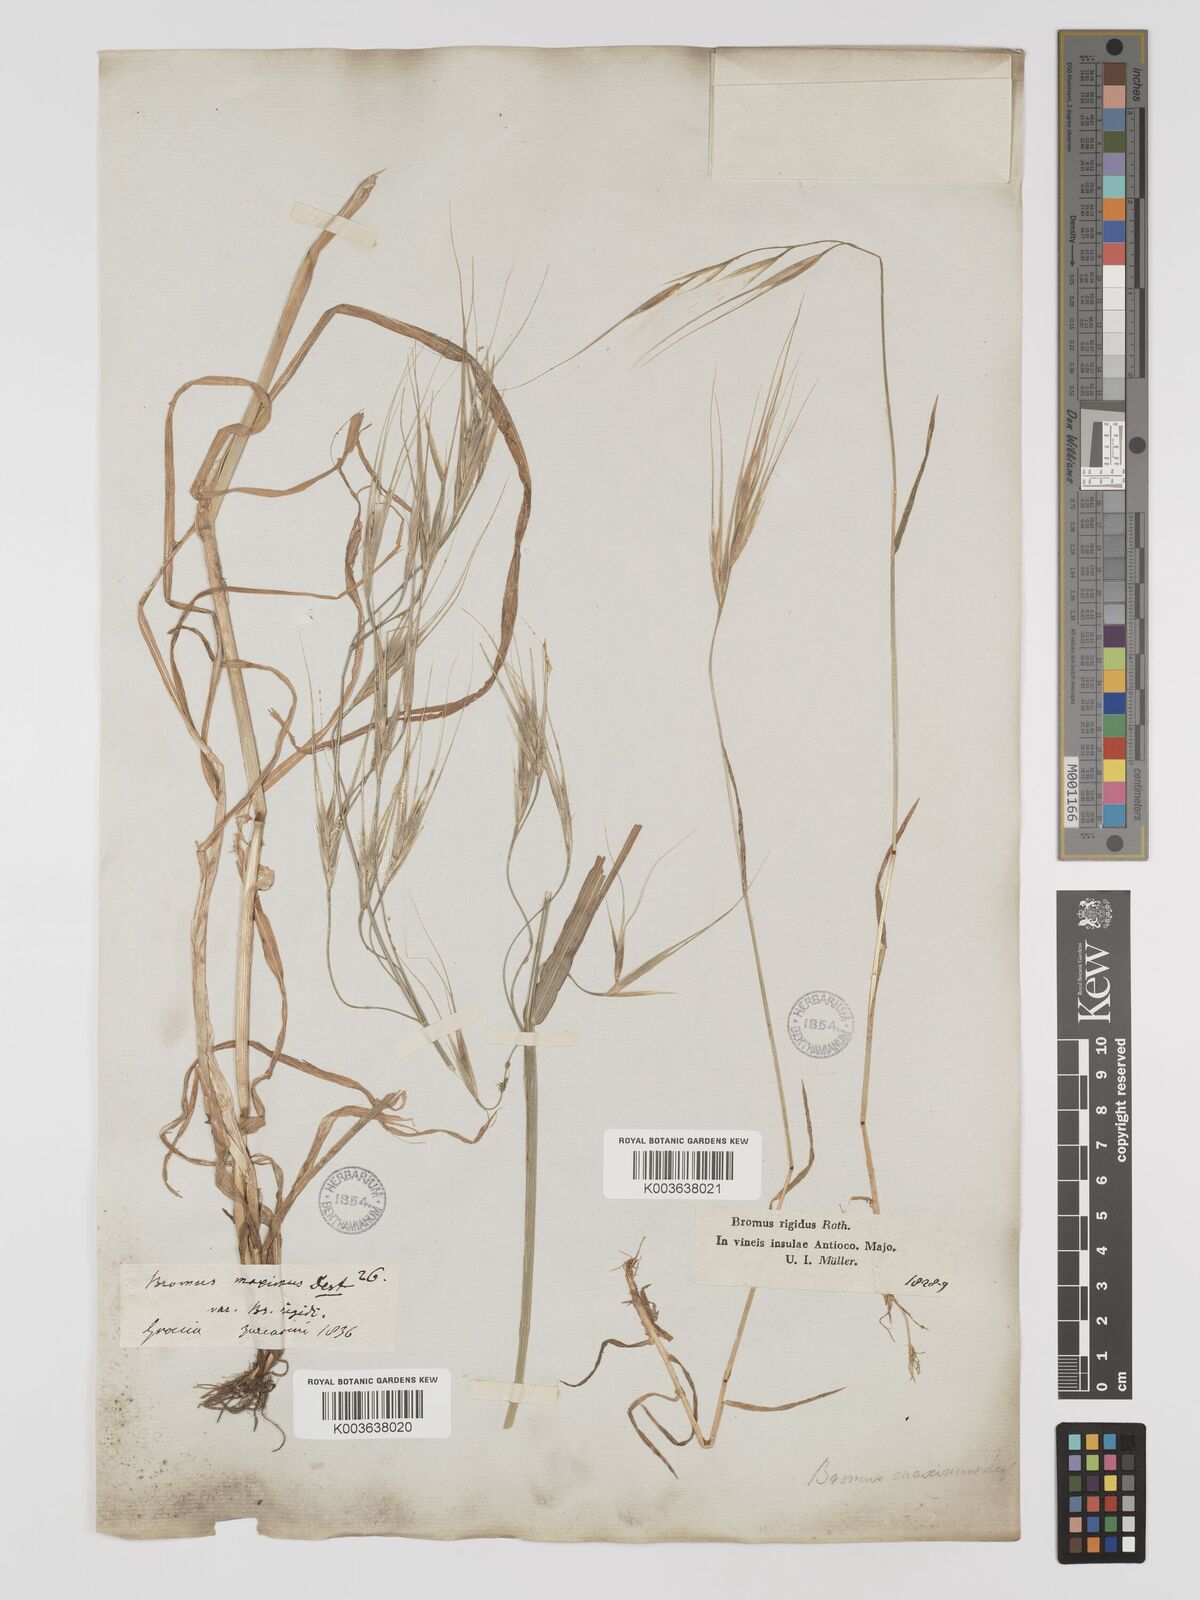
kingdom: Plantae
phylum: Tracheophyta
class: Liliopsida
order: Poales
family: Poaceae
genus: Bromus
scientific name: Bromus
